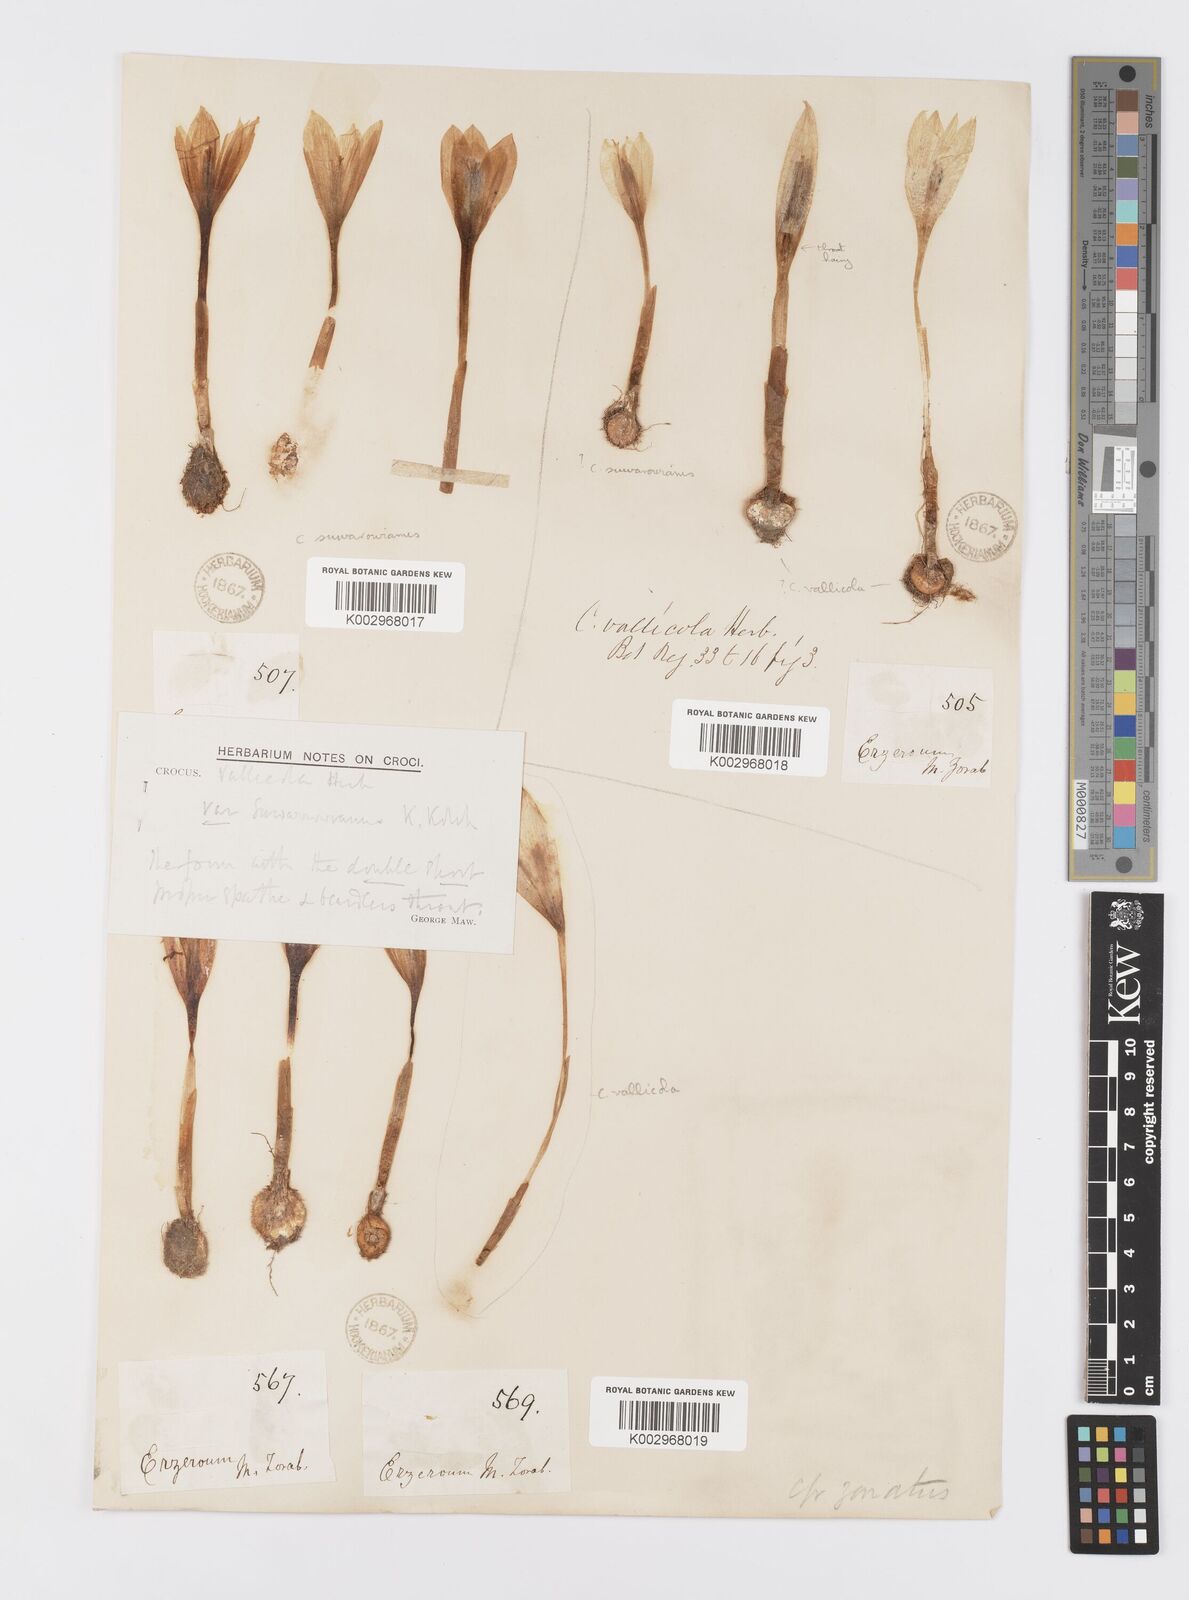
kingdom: Plantae
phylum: Tracheophyta
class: Liliopsida
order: Asparagales
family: Iridaceae
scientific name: Iridaceae
